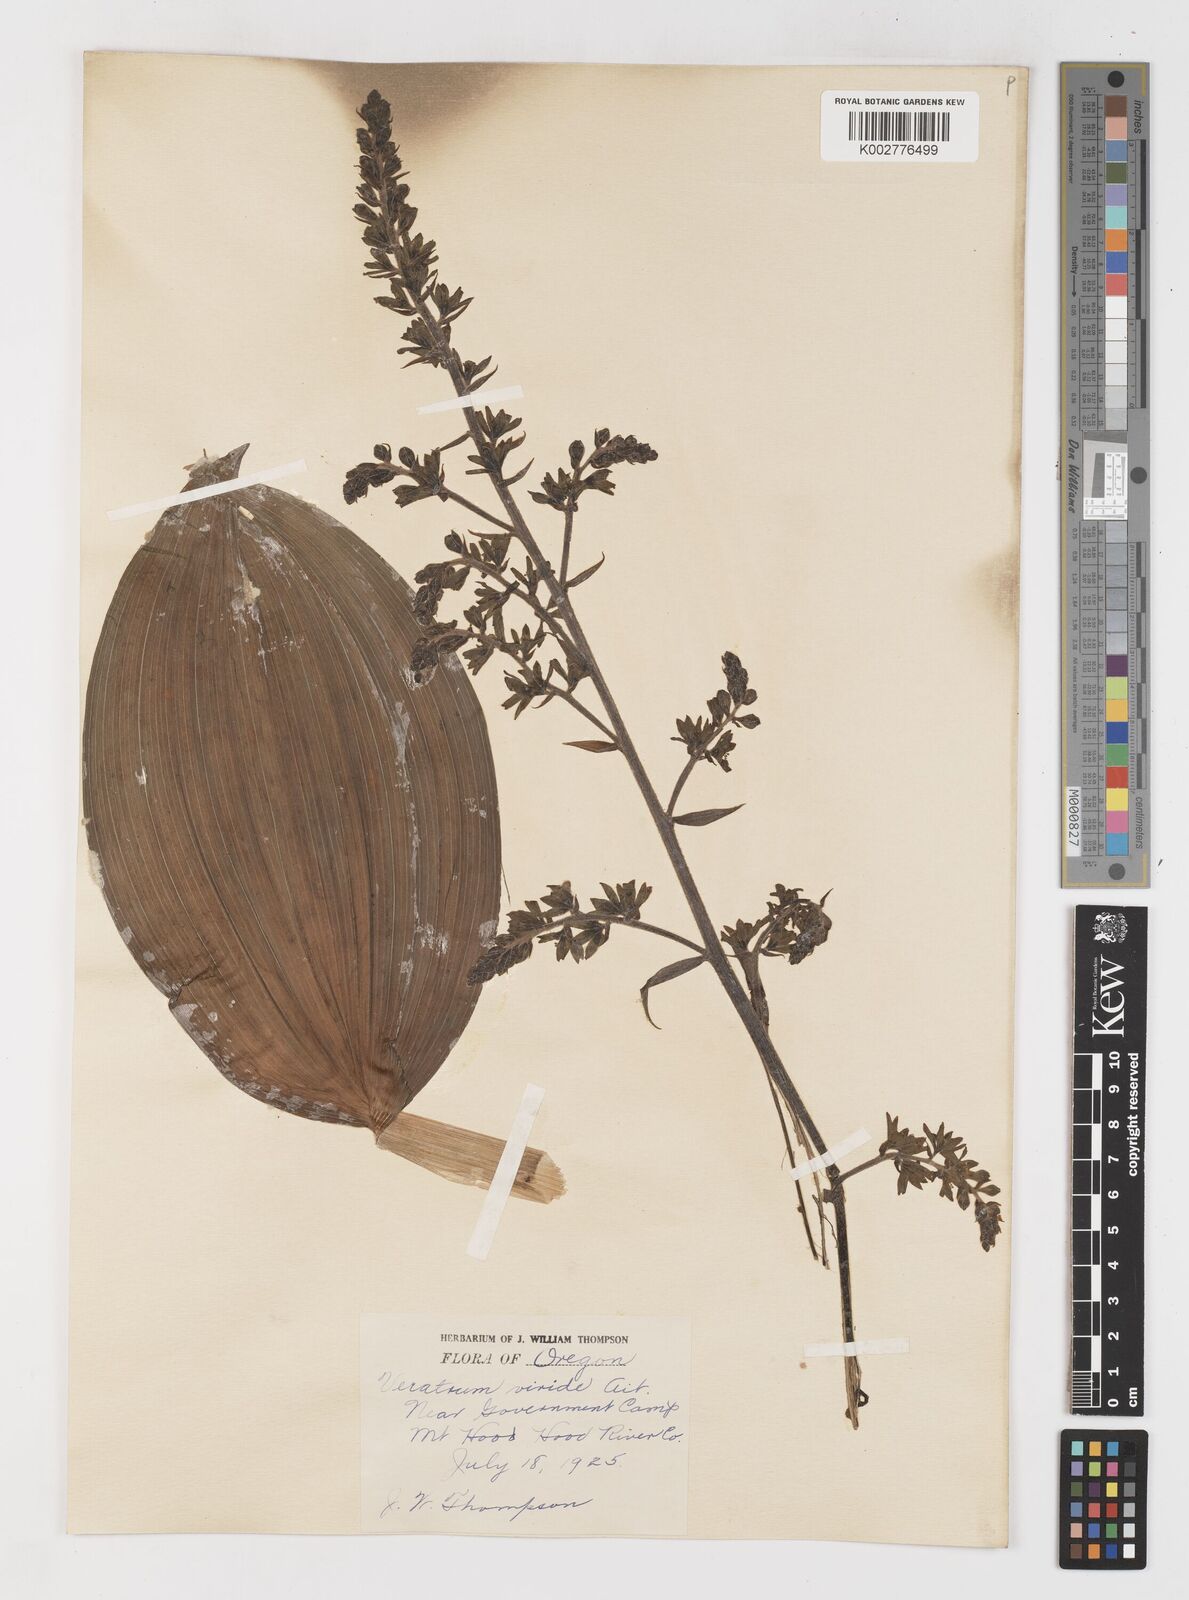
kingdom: Plantae
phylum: Tracheophyta
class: Liliopsida
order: Liliales
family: Melanthiaceae
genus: Veratrum
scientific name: Veratrum viride
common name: American false hellebore
